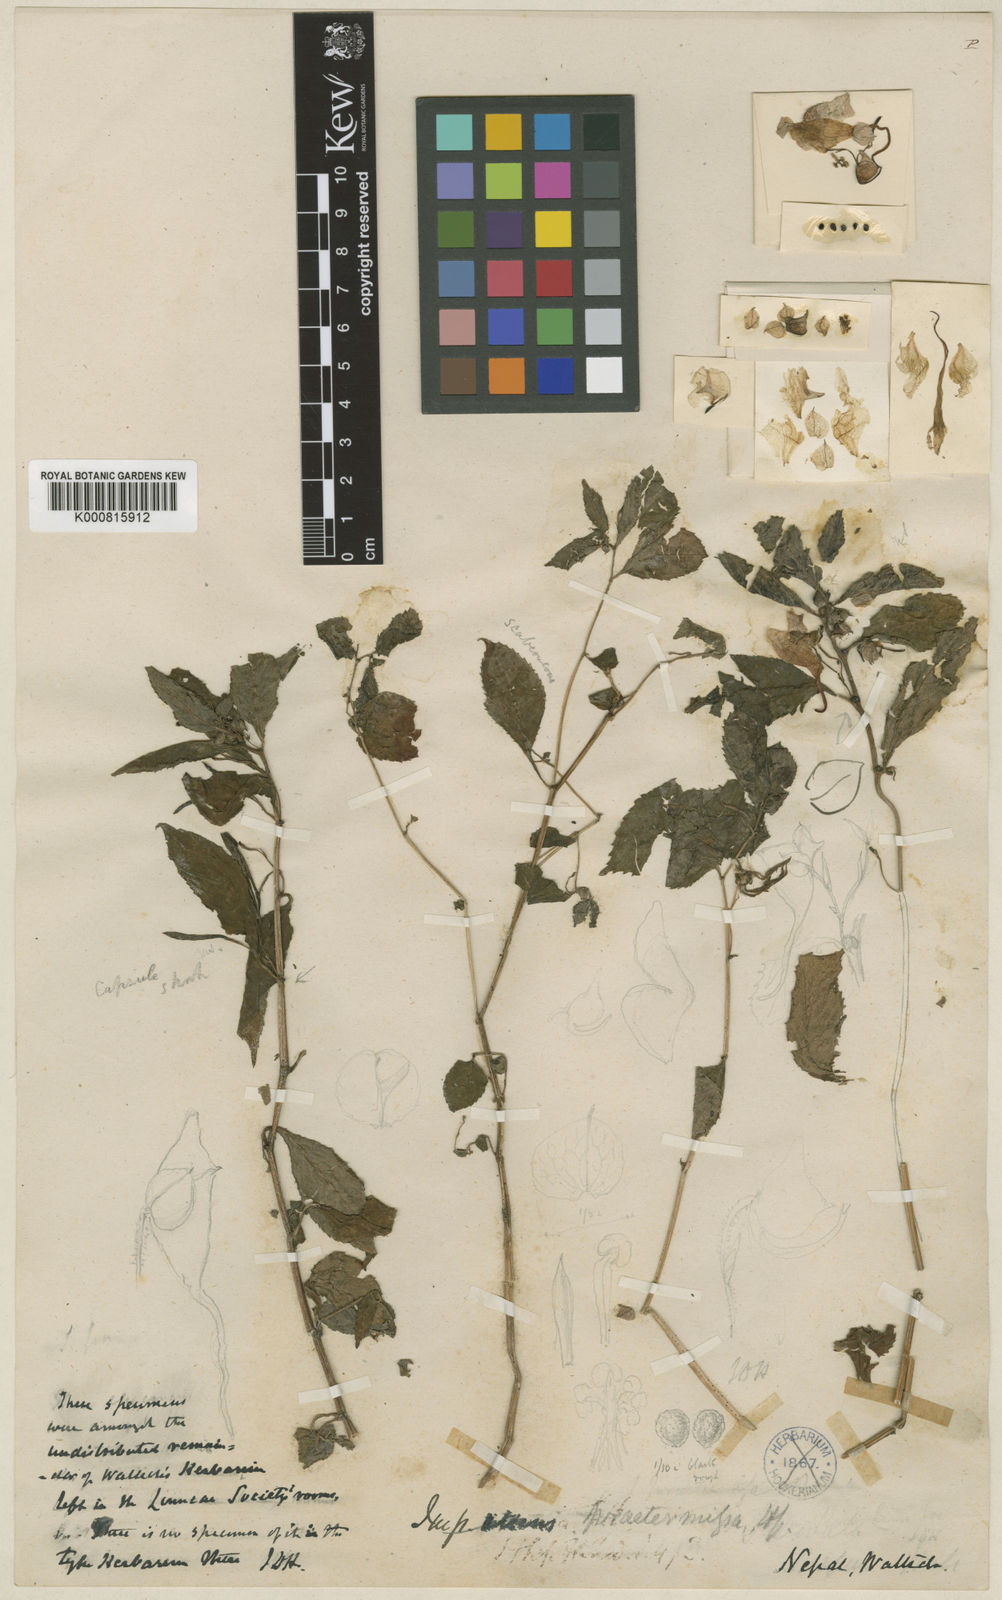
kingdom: Plantae
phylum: Tracheophyta
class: Magnoliopsida
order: Ericales
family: Balsaminaceae
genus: Impatiens
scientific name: Impatiens tricornis
